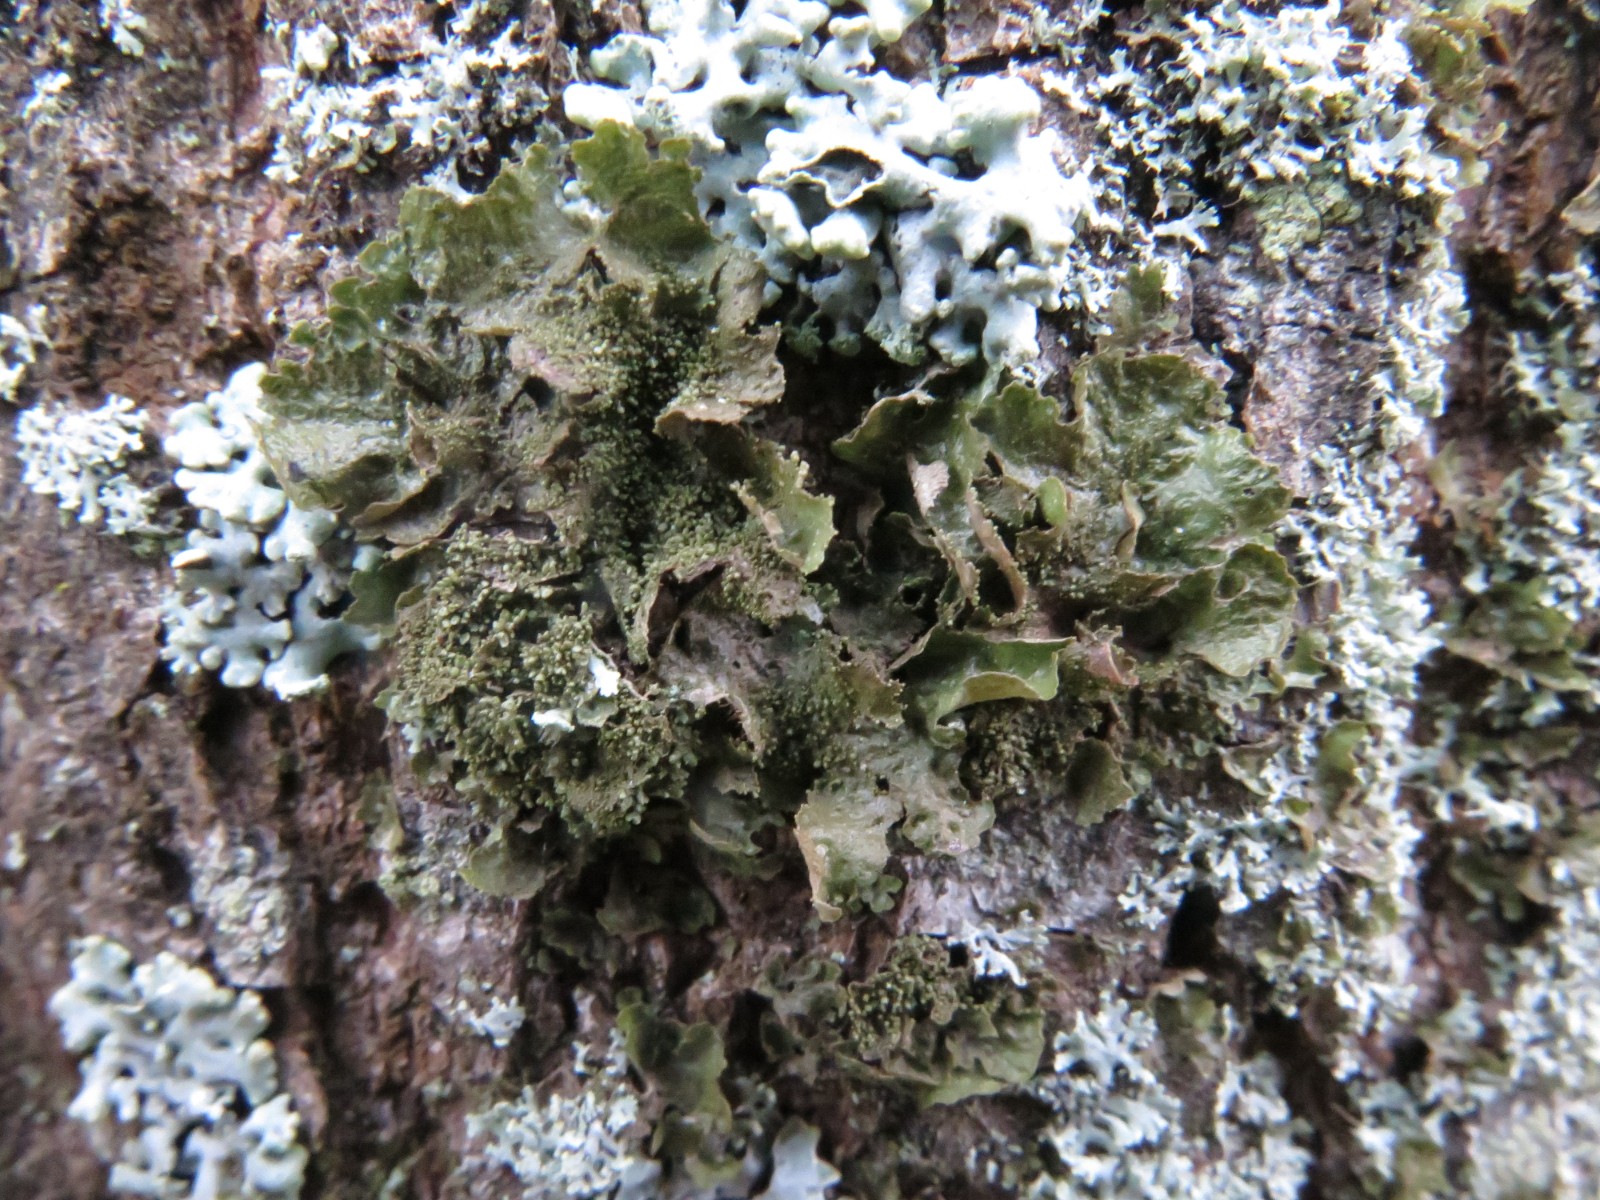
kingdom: Fungi
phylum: Ascomycota
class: Lecanoromycetes
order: Lecanorales
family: Parmeliaceae
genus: Melanohalea
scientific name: Melanohalea exasperatula
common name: kølle-skållav
